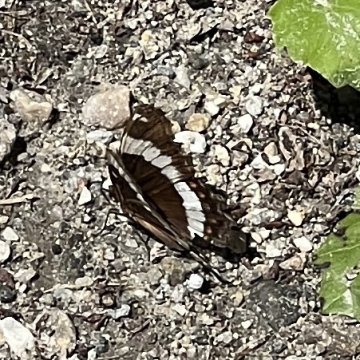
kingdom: Animalia
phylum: Arthropoda
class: Insecta
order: Lepidoptera
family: Nymphalidae
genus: Limenitis
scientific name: Limenitis arthemis
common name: Red-spotted Admiral
